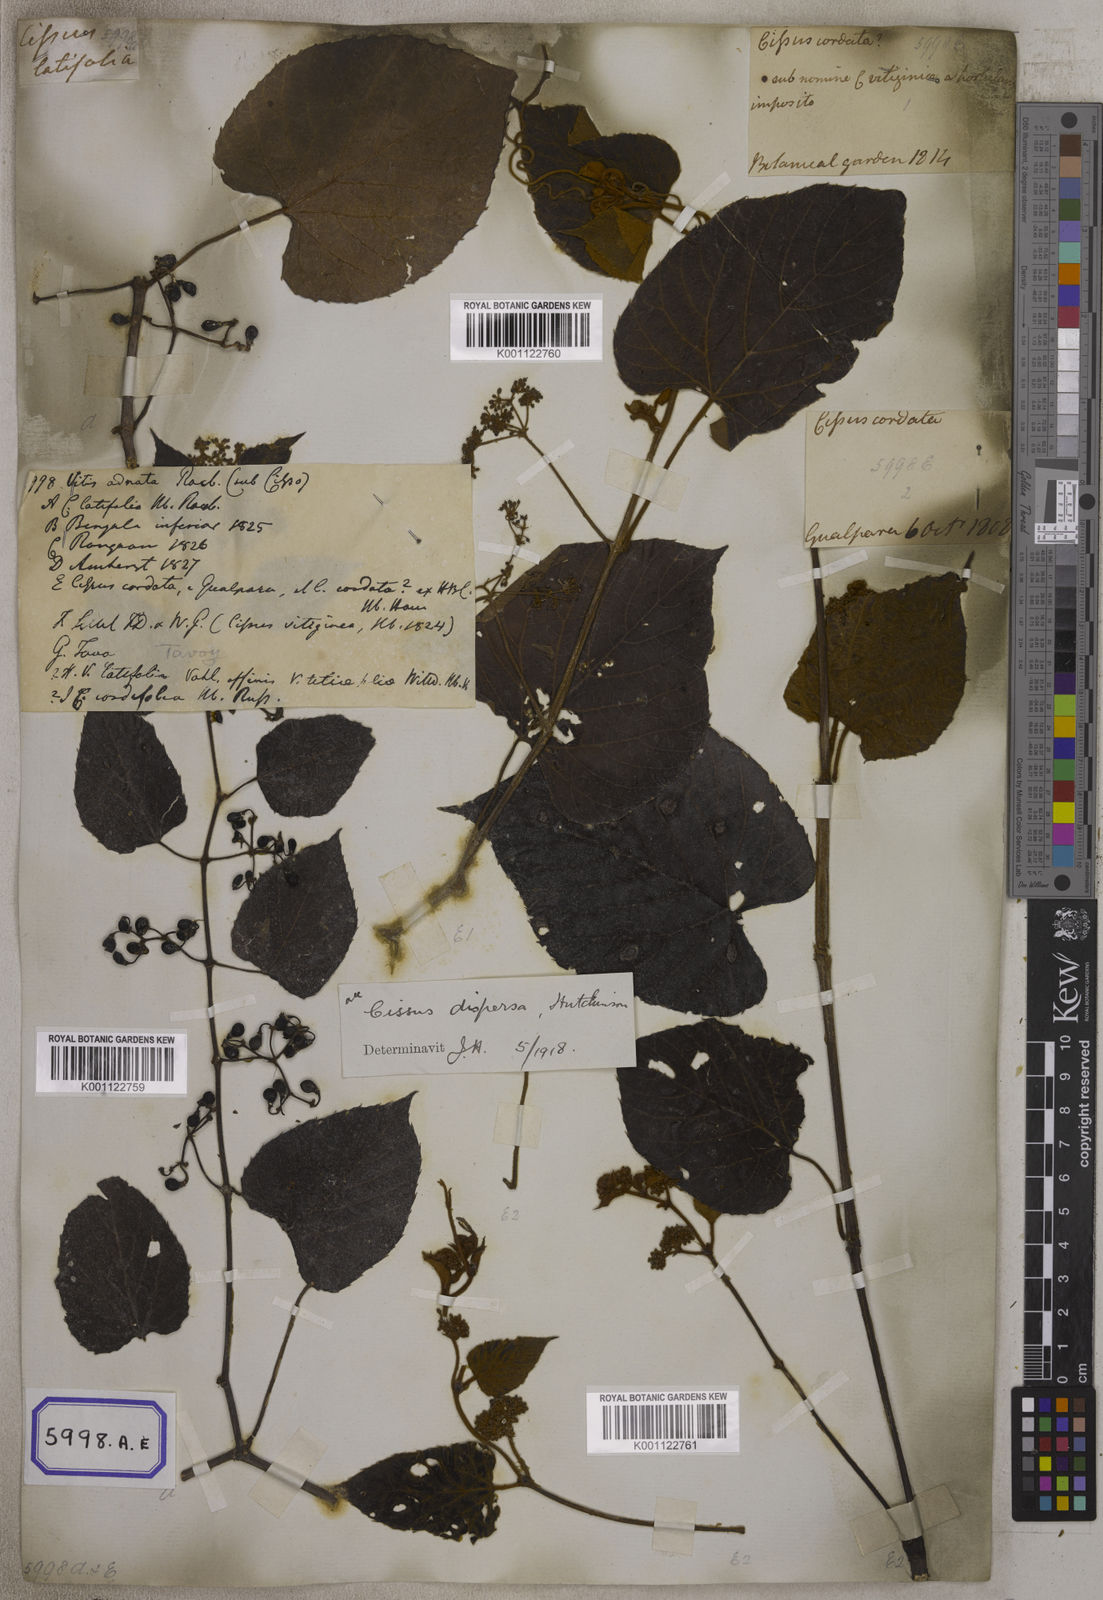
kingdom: Plantae
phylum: Tracheophyta
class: Magnoliopsida
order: Vitales
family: Vitaceae
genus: Cissus
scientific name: Cissus adnata
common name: Heart-leaf-grape
